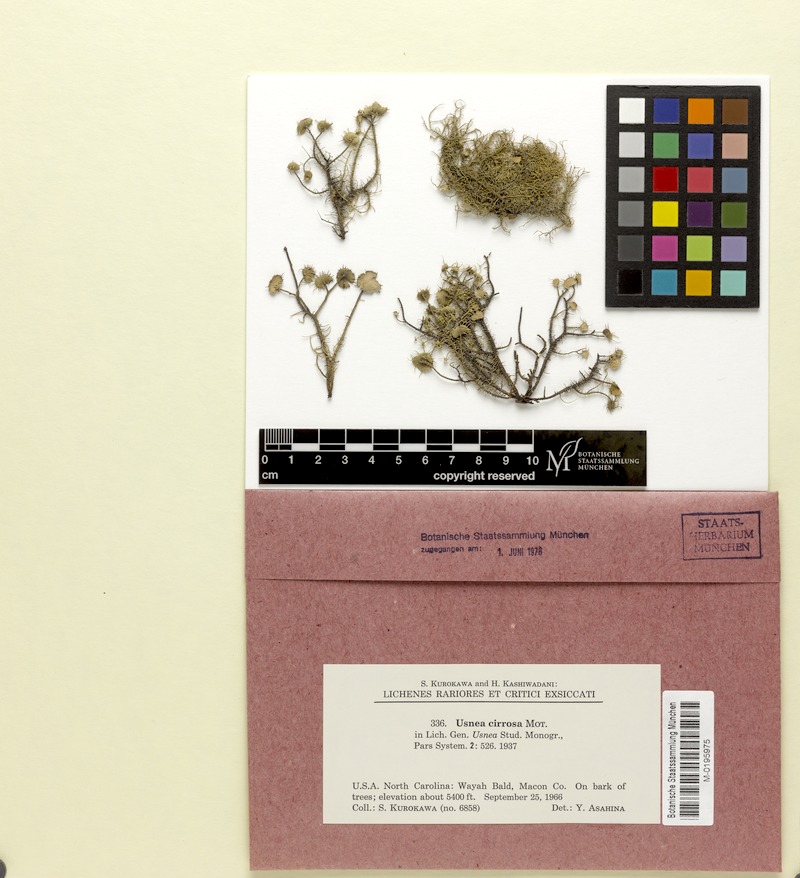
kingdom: Fungi
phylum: Ascomycota
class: Lecanoromycetes
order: Lecanorales
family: Parmeliaceae
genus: Usnea
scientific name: Usnea cirrosa
